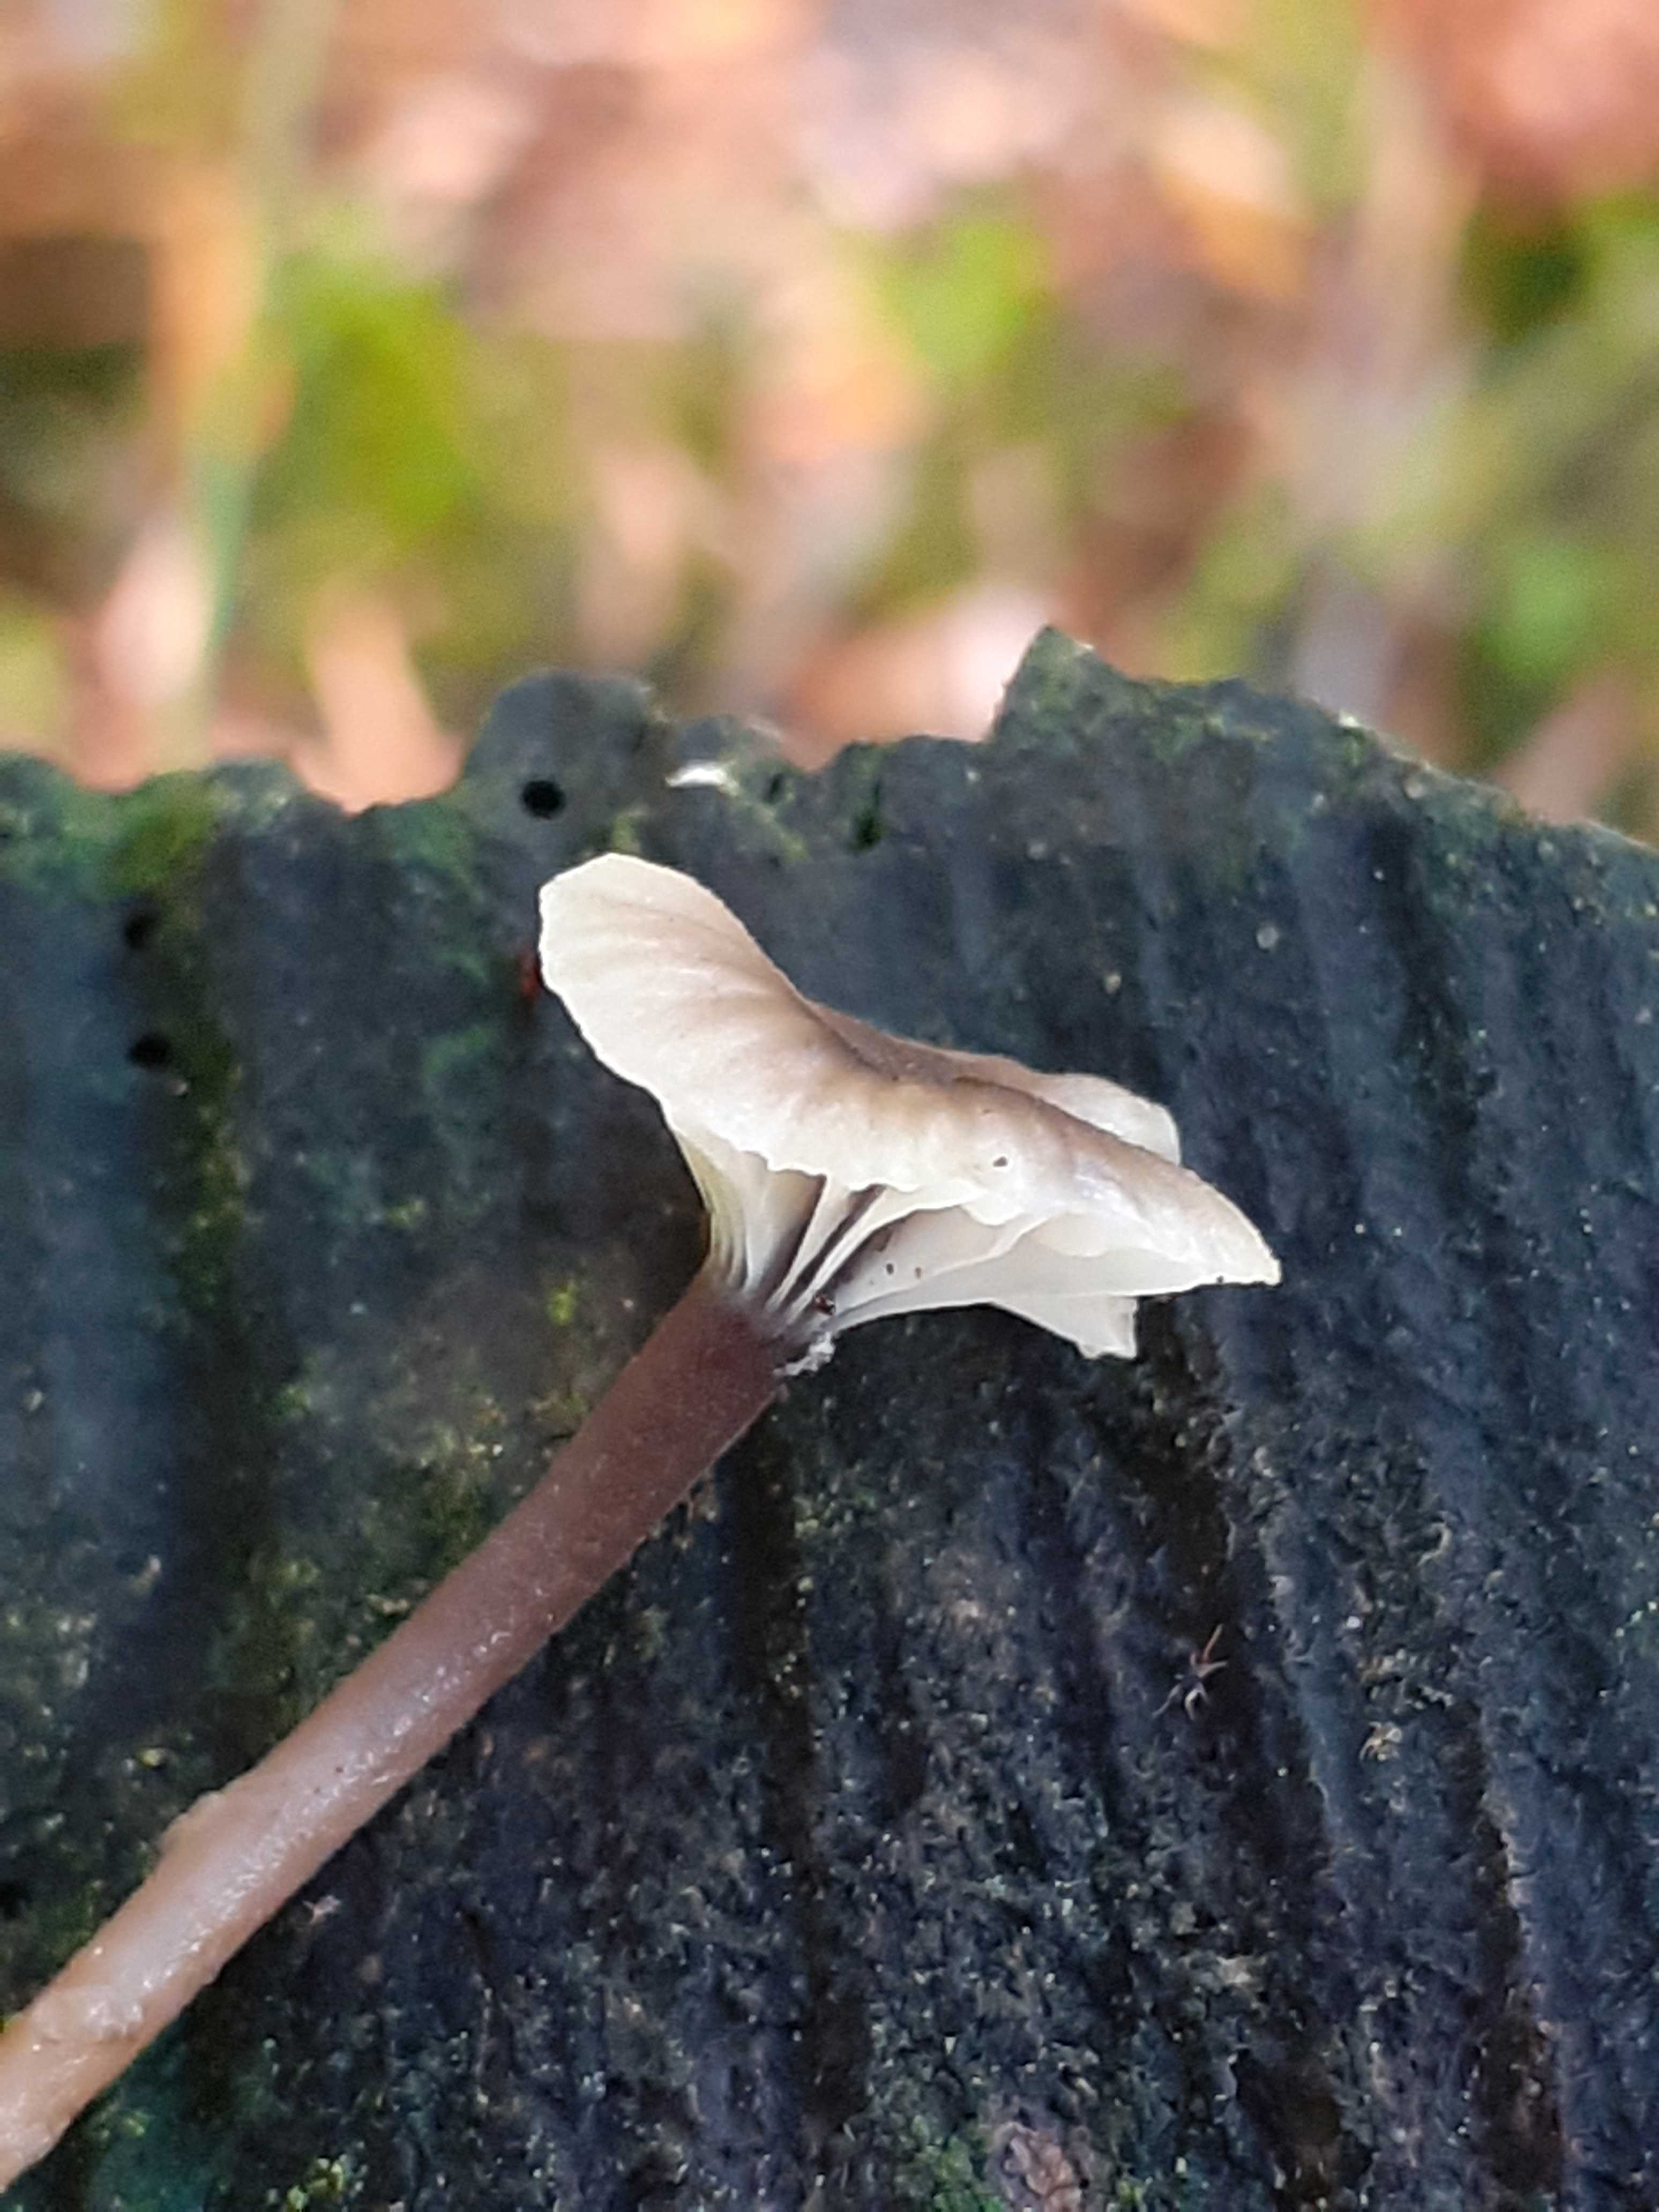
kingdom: Fungi
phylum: Basidiomycota
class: Agaricomycetes
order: Hymenochaetales
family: Rickenellaceae
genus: Rickenella
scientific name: Rickenella swartzii
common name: finstokket mosnavlehat
